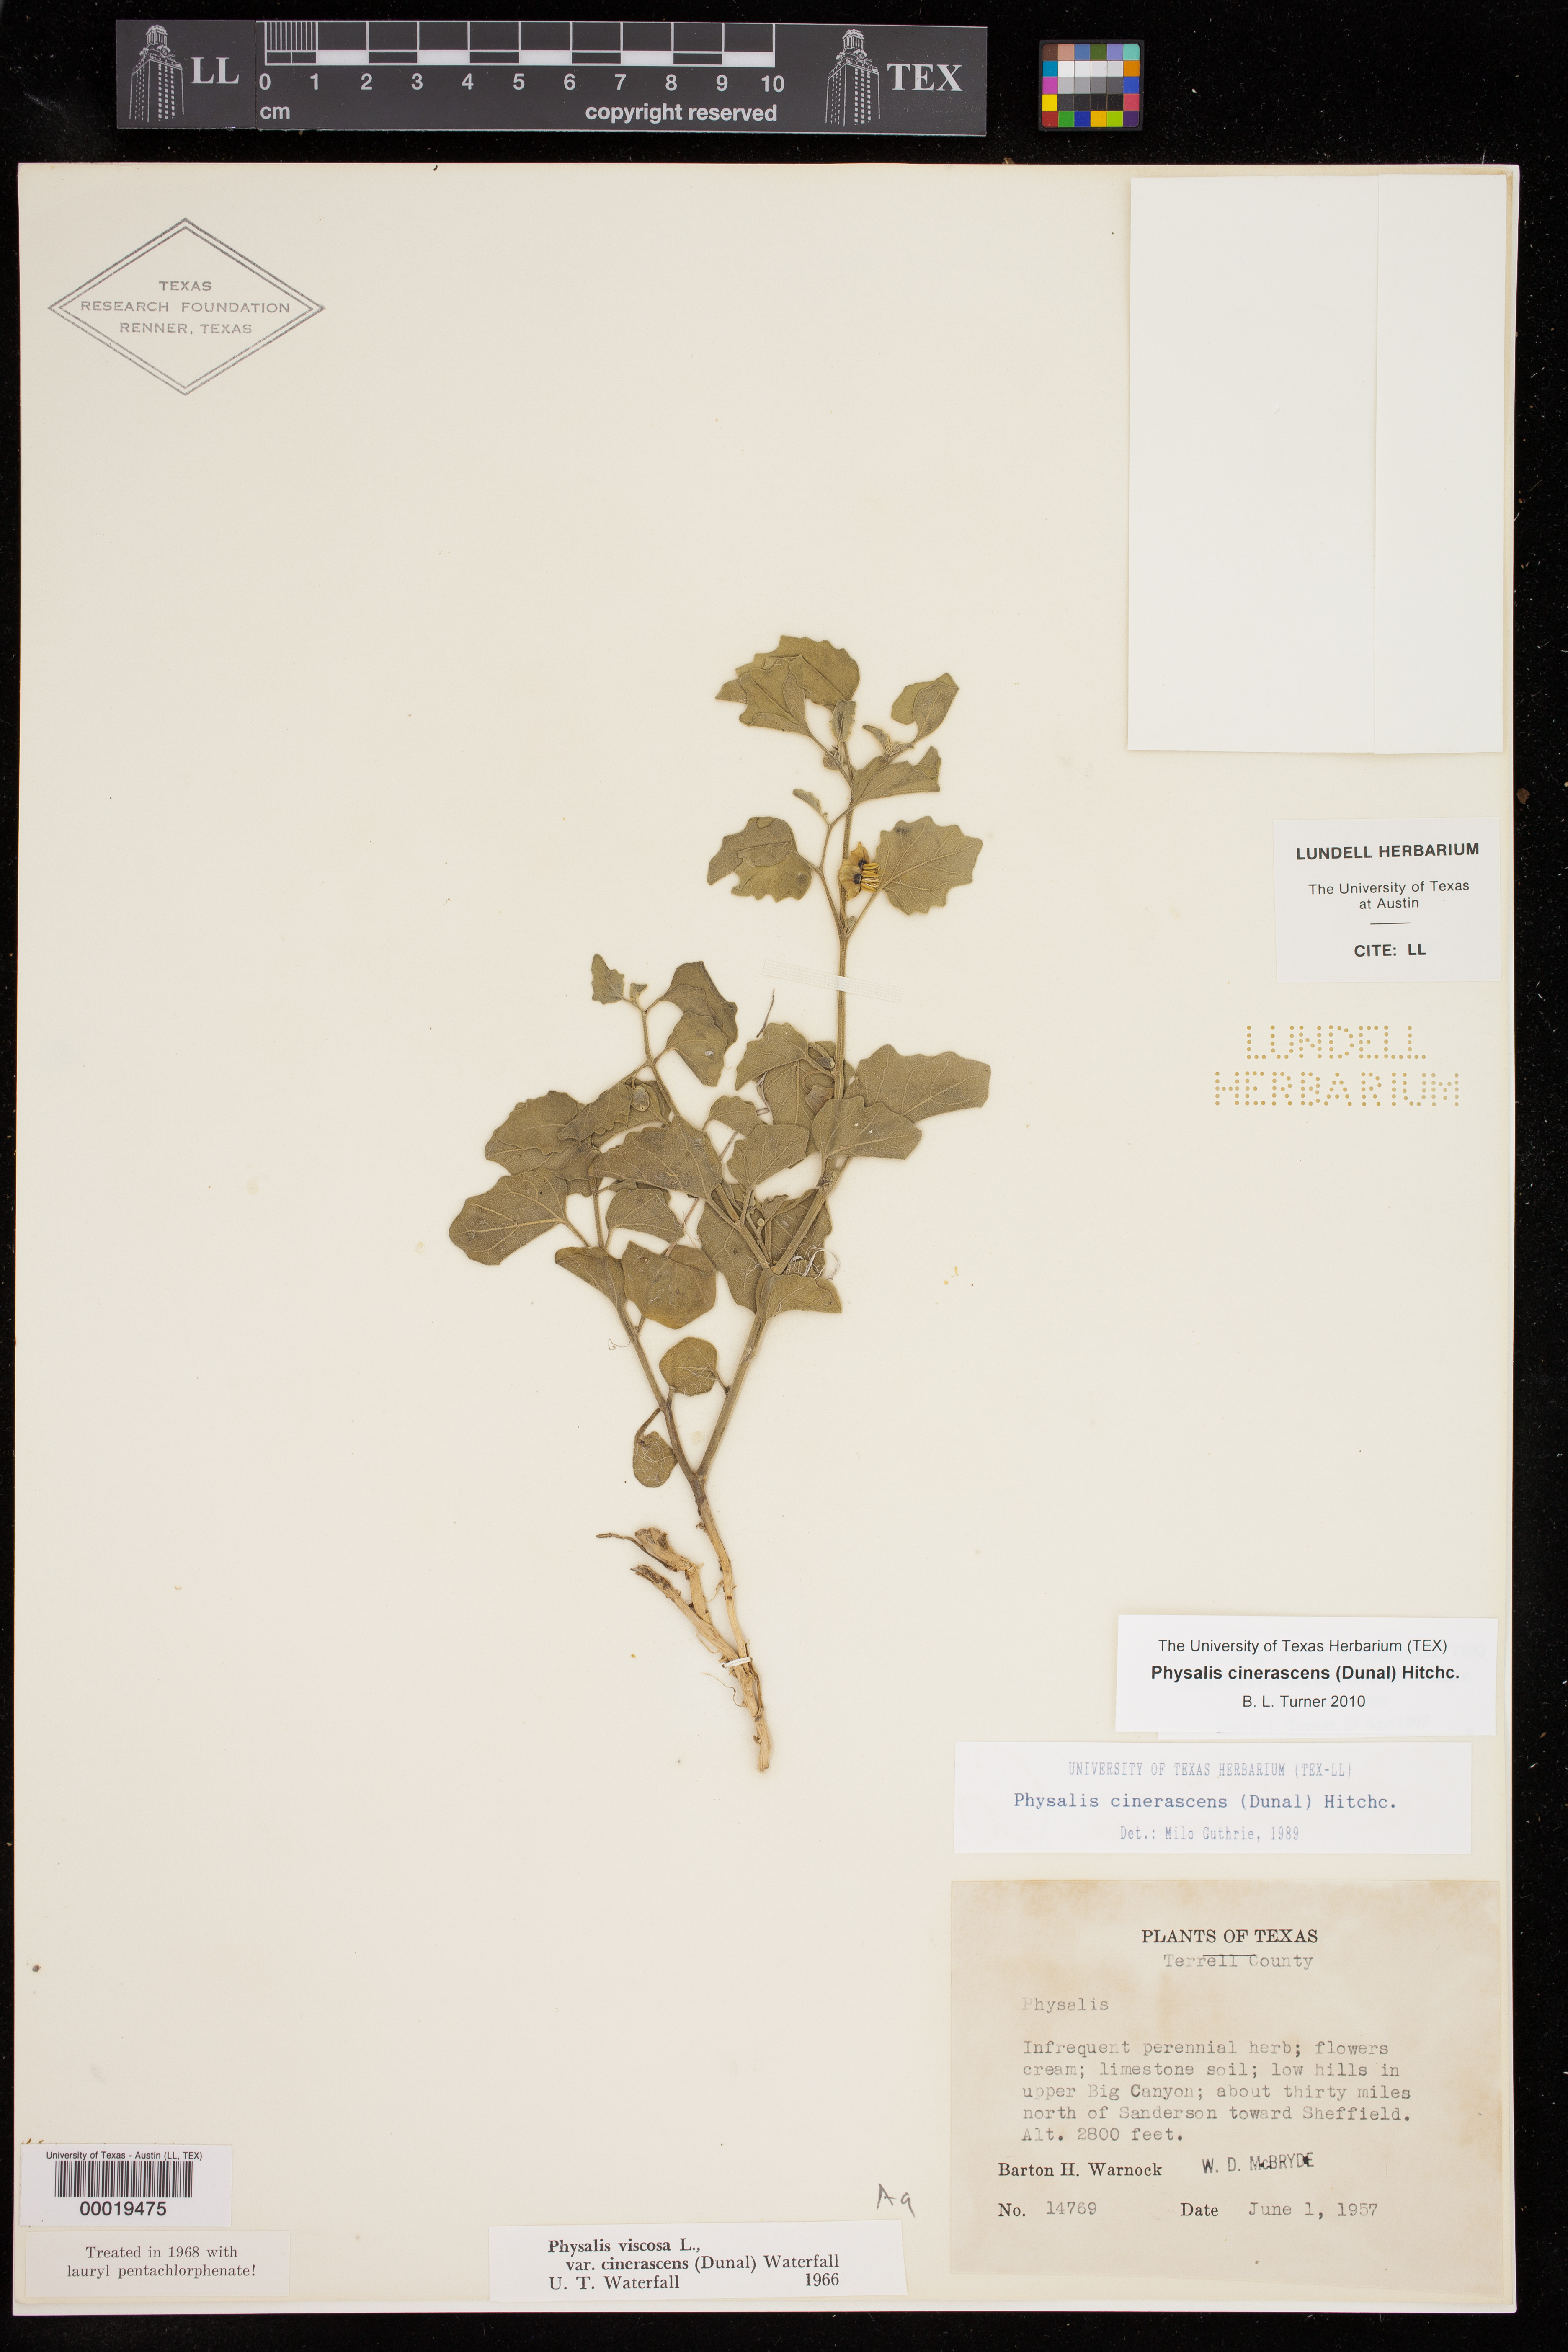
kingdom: Plantae
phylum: Tracheophyta
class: Magnoliopsida
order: Solanales
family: Solanaceae
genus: Physalis
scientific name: Physalis cinerascens
